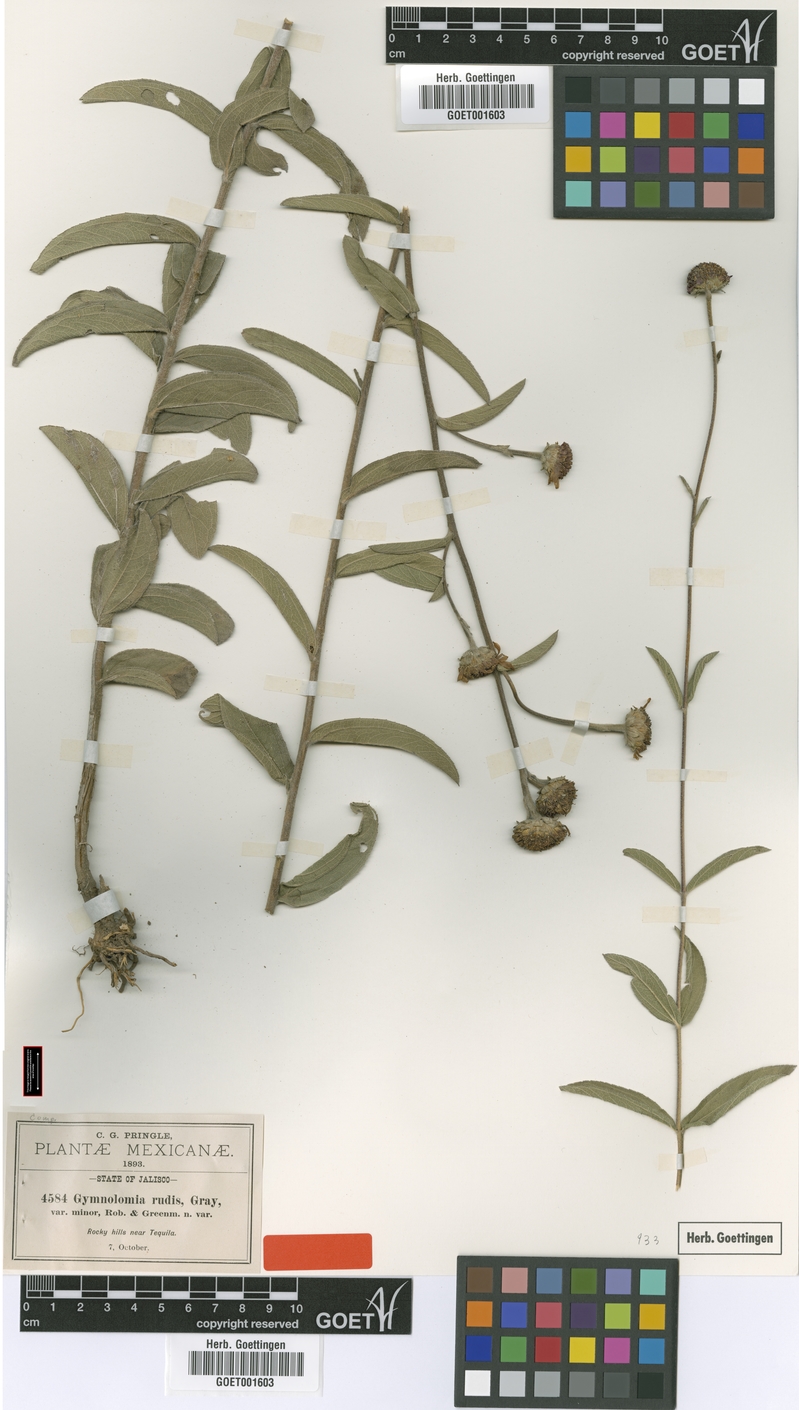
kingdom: Plantae
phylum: Tracheophyta
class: Magnoliopsida
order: Asterales
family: Asteraceae
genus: Aldama
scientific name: Aldama parkinsonii
